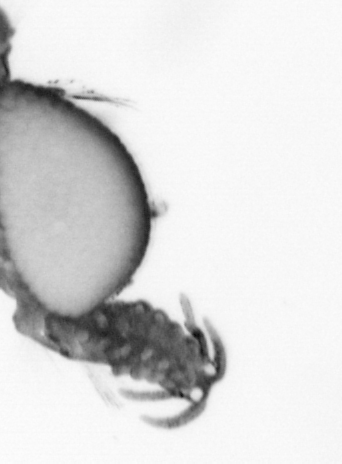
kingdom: Animalia
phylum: Annelida
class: Polychaeta
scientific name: Polychaeta
